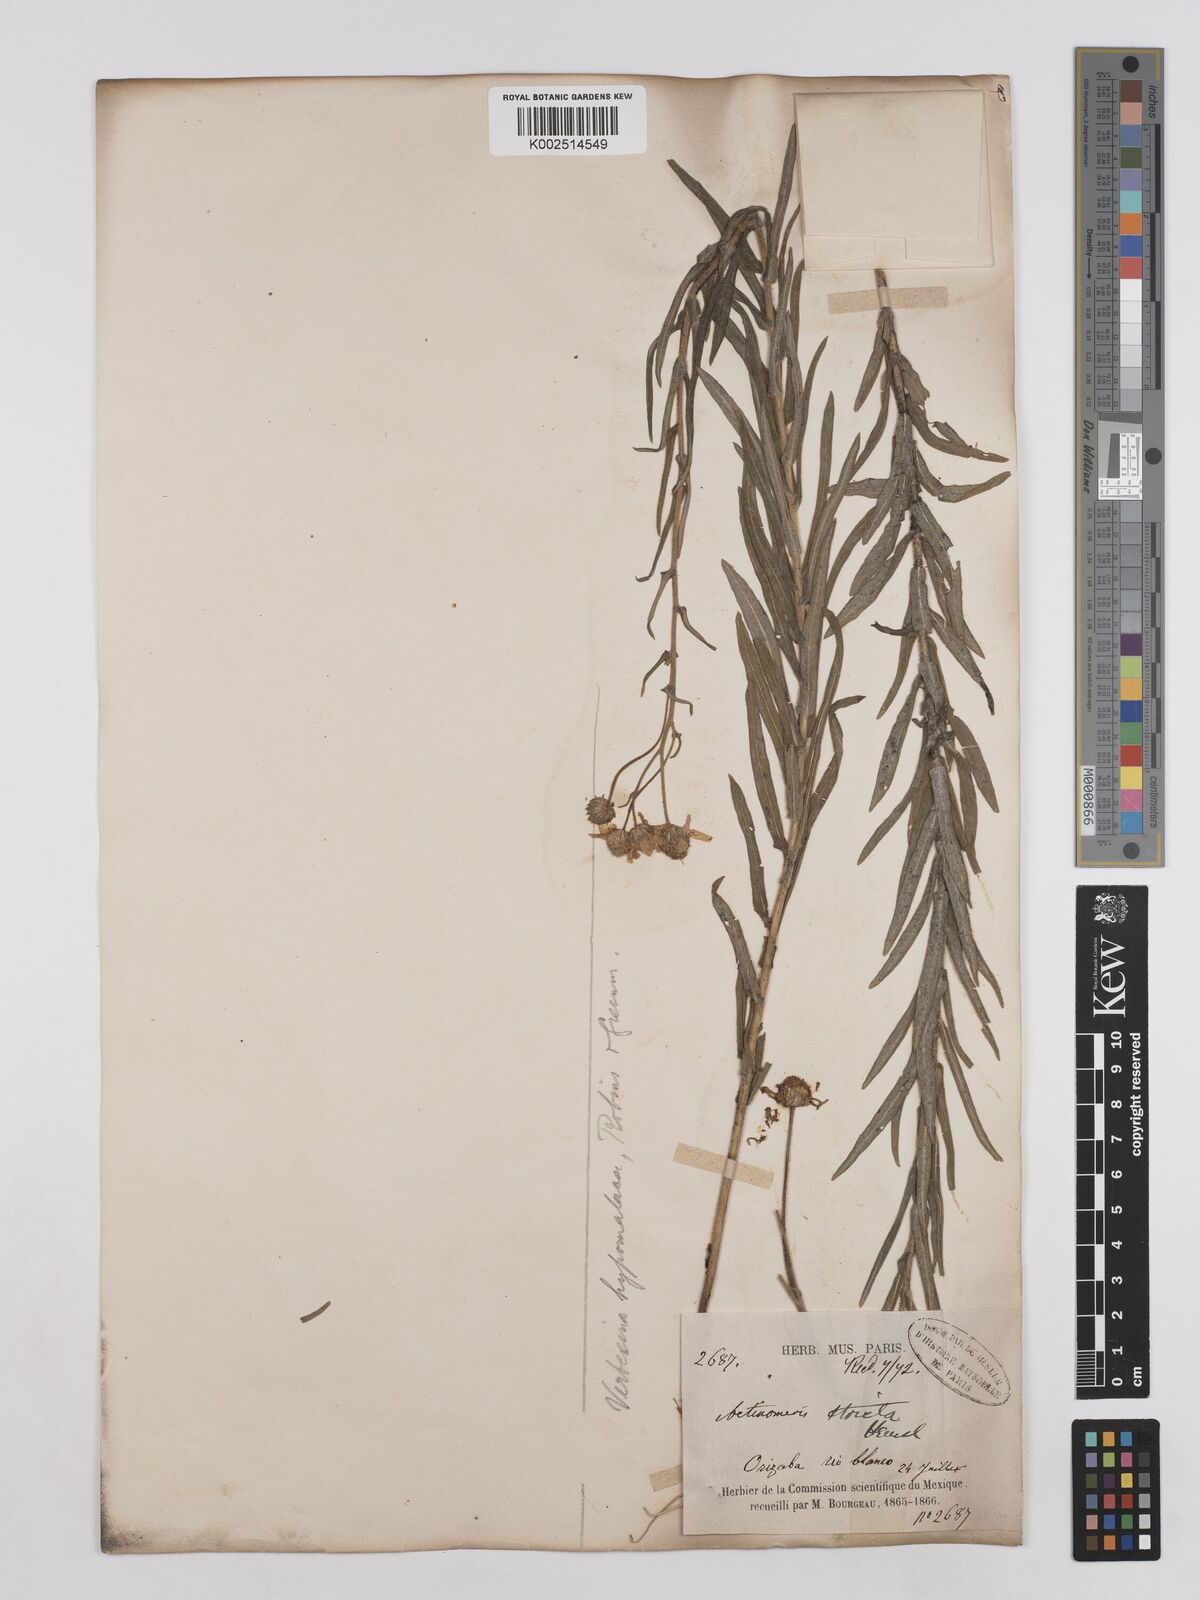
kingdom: Plantae
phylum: Tracheophyta
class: Magnoliopsida
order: Asterales
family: Asteraceae
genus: Verbesina
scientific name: Verbesina hypomalaca
